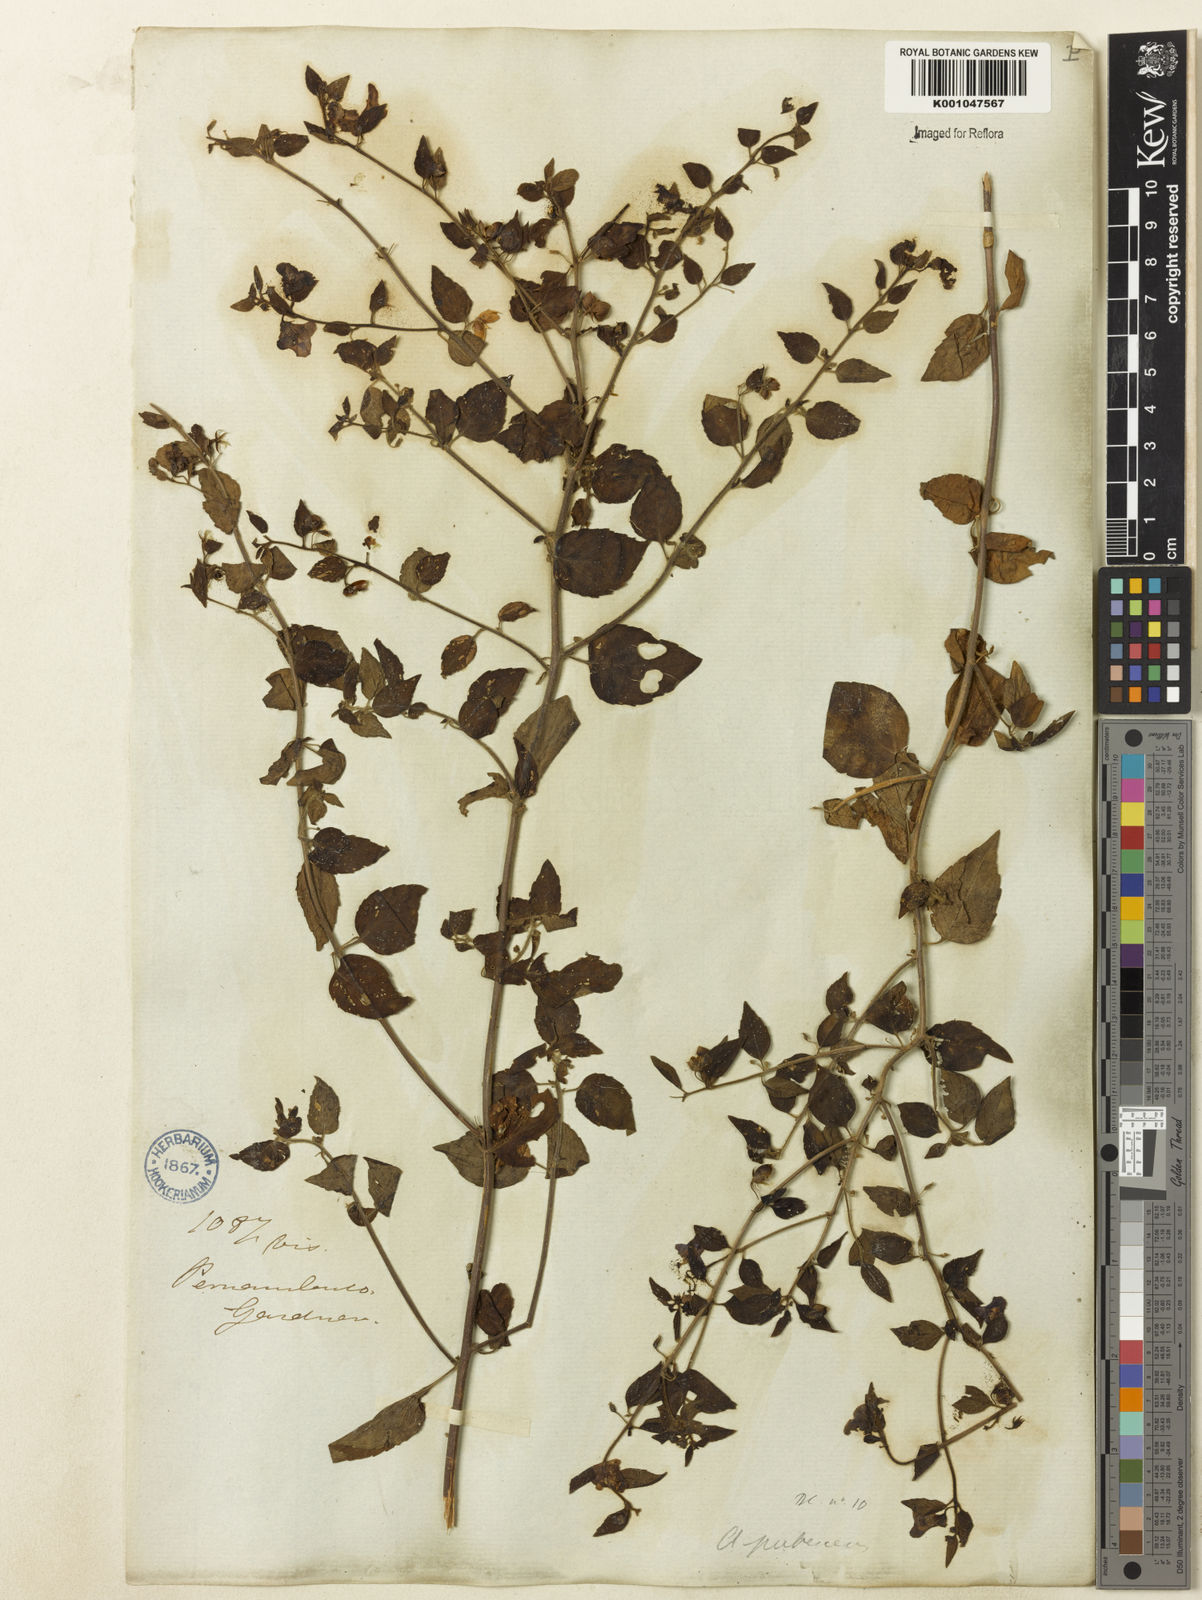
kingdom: Plantae
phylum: Tracheophyta
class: Magnoliopsida
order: Lamiales
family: Plantaginaceae
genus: Angelonia
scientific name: Angelonia pubescens
